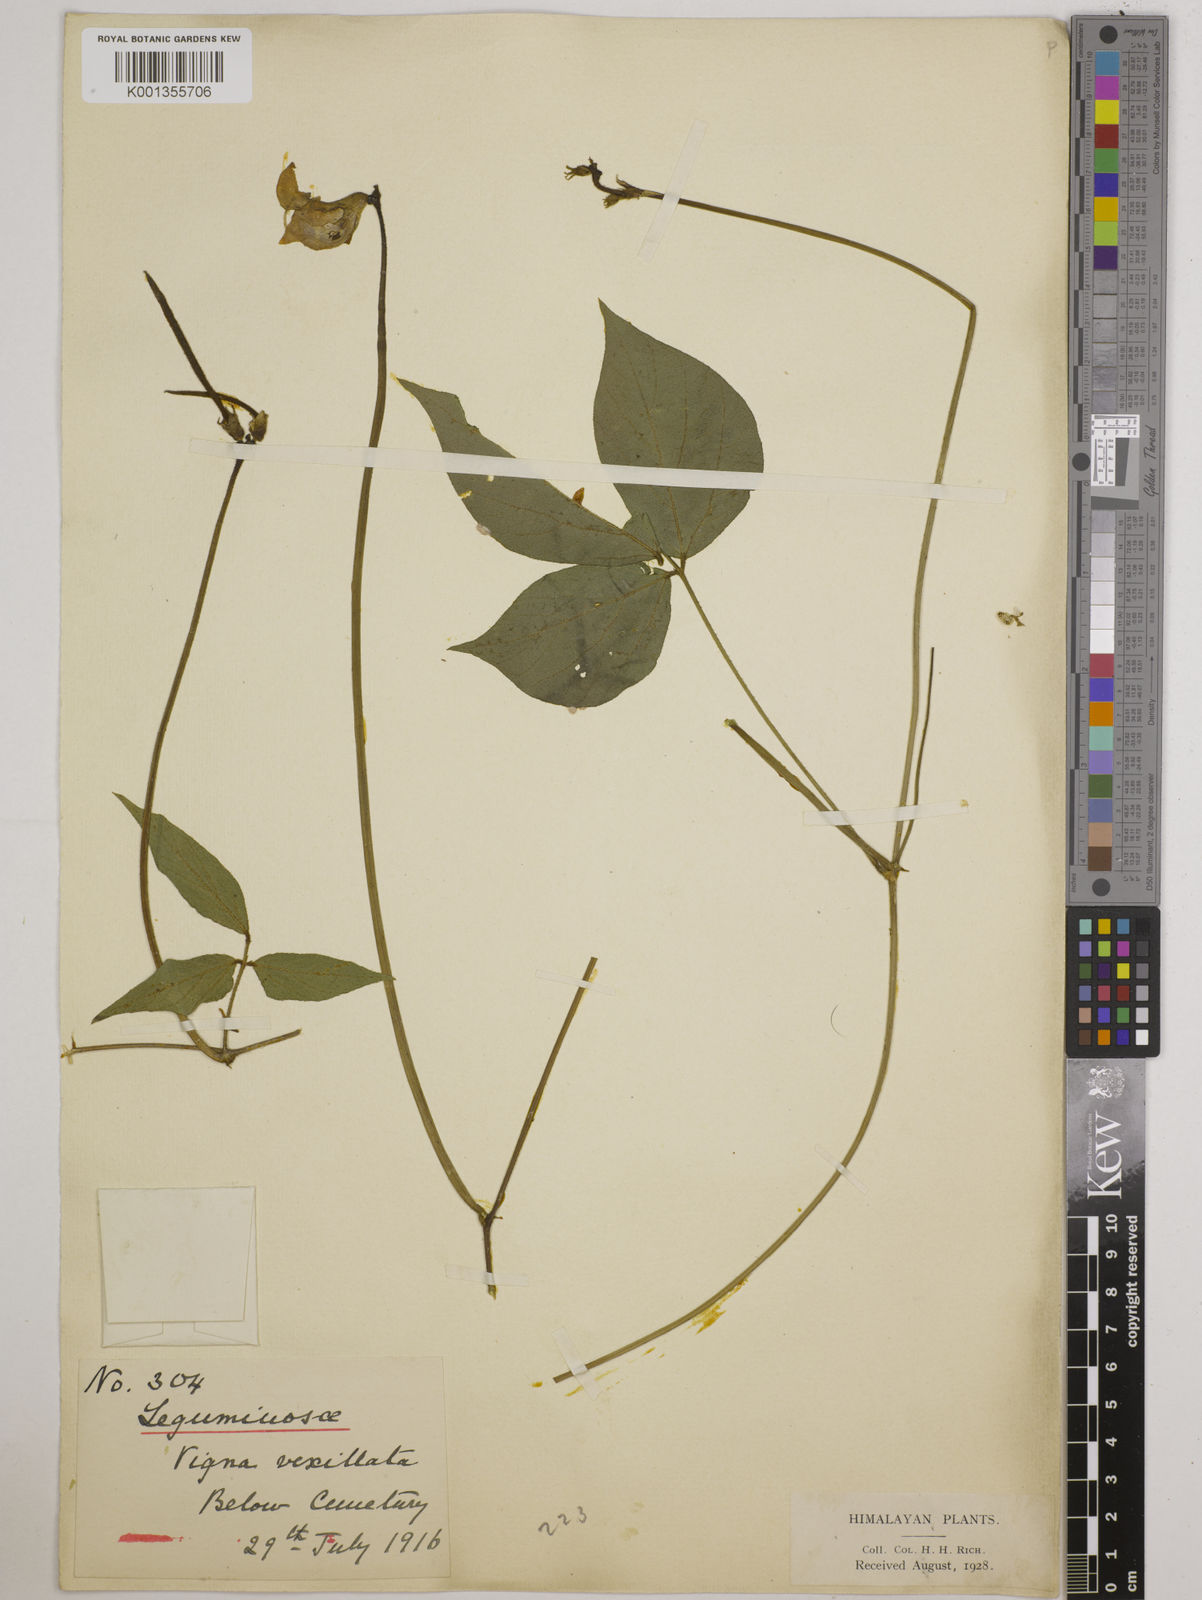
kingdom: Plantae
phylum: Tracheophyta
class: Magnoliopsida
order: Fabales
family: Fabaceae
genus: Vigna
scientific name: Vigna vexillata
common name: Zombi pea
